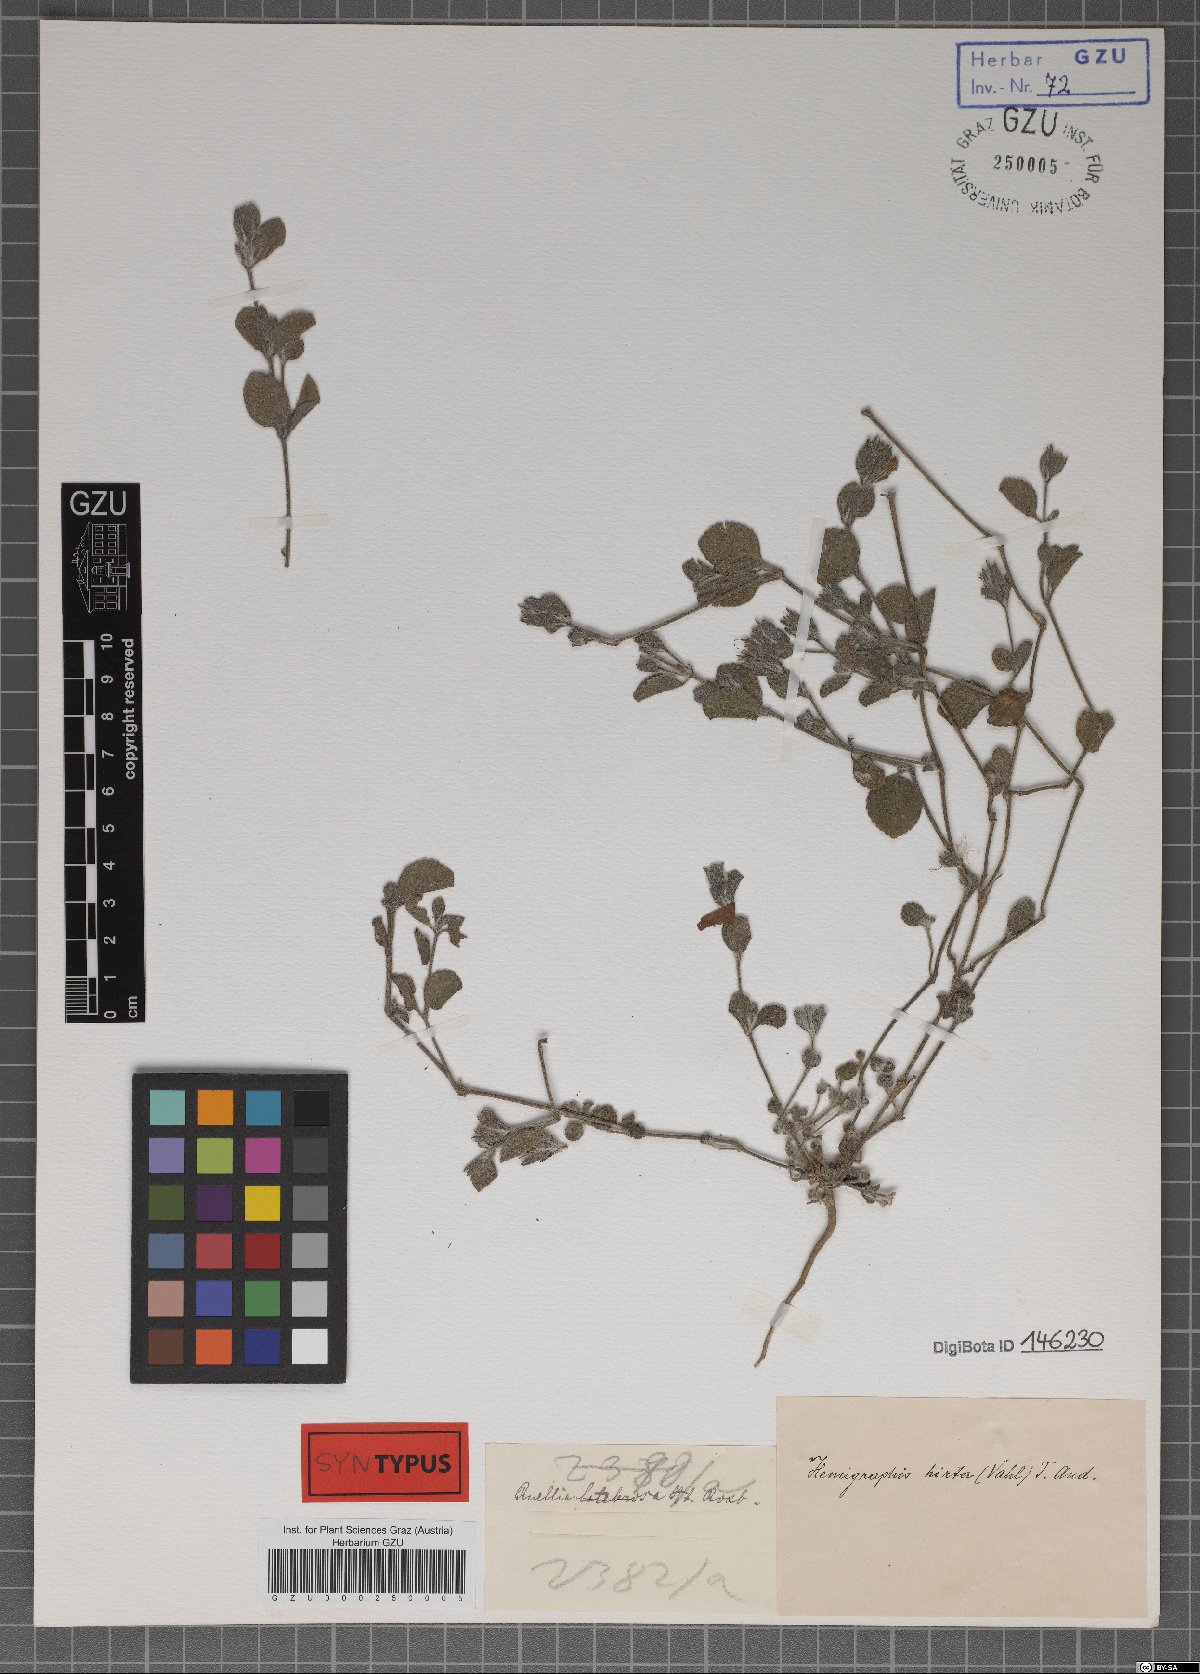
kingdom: Plantae
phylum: Tracheophyta
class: Magnoliopsida
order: Lamiales
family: Acanthaceae
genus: Strobilanthes
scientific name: Strobilanthes hirta
